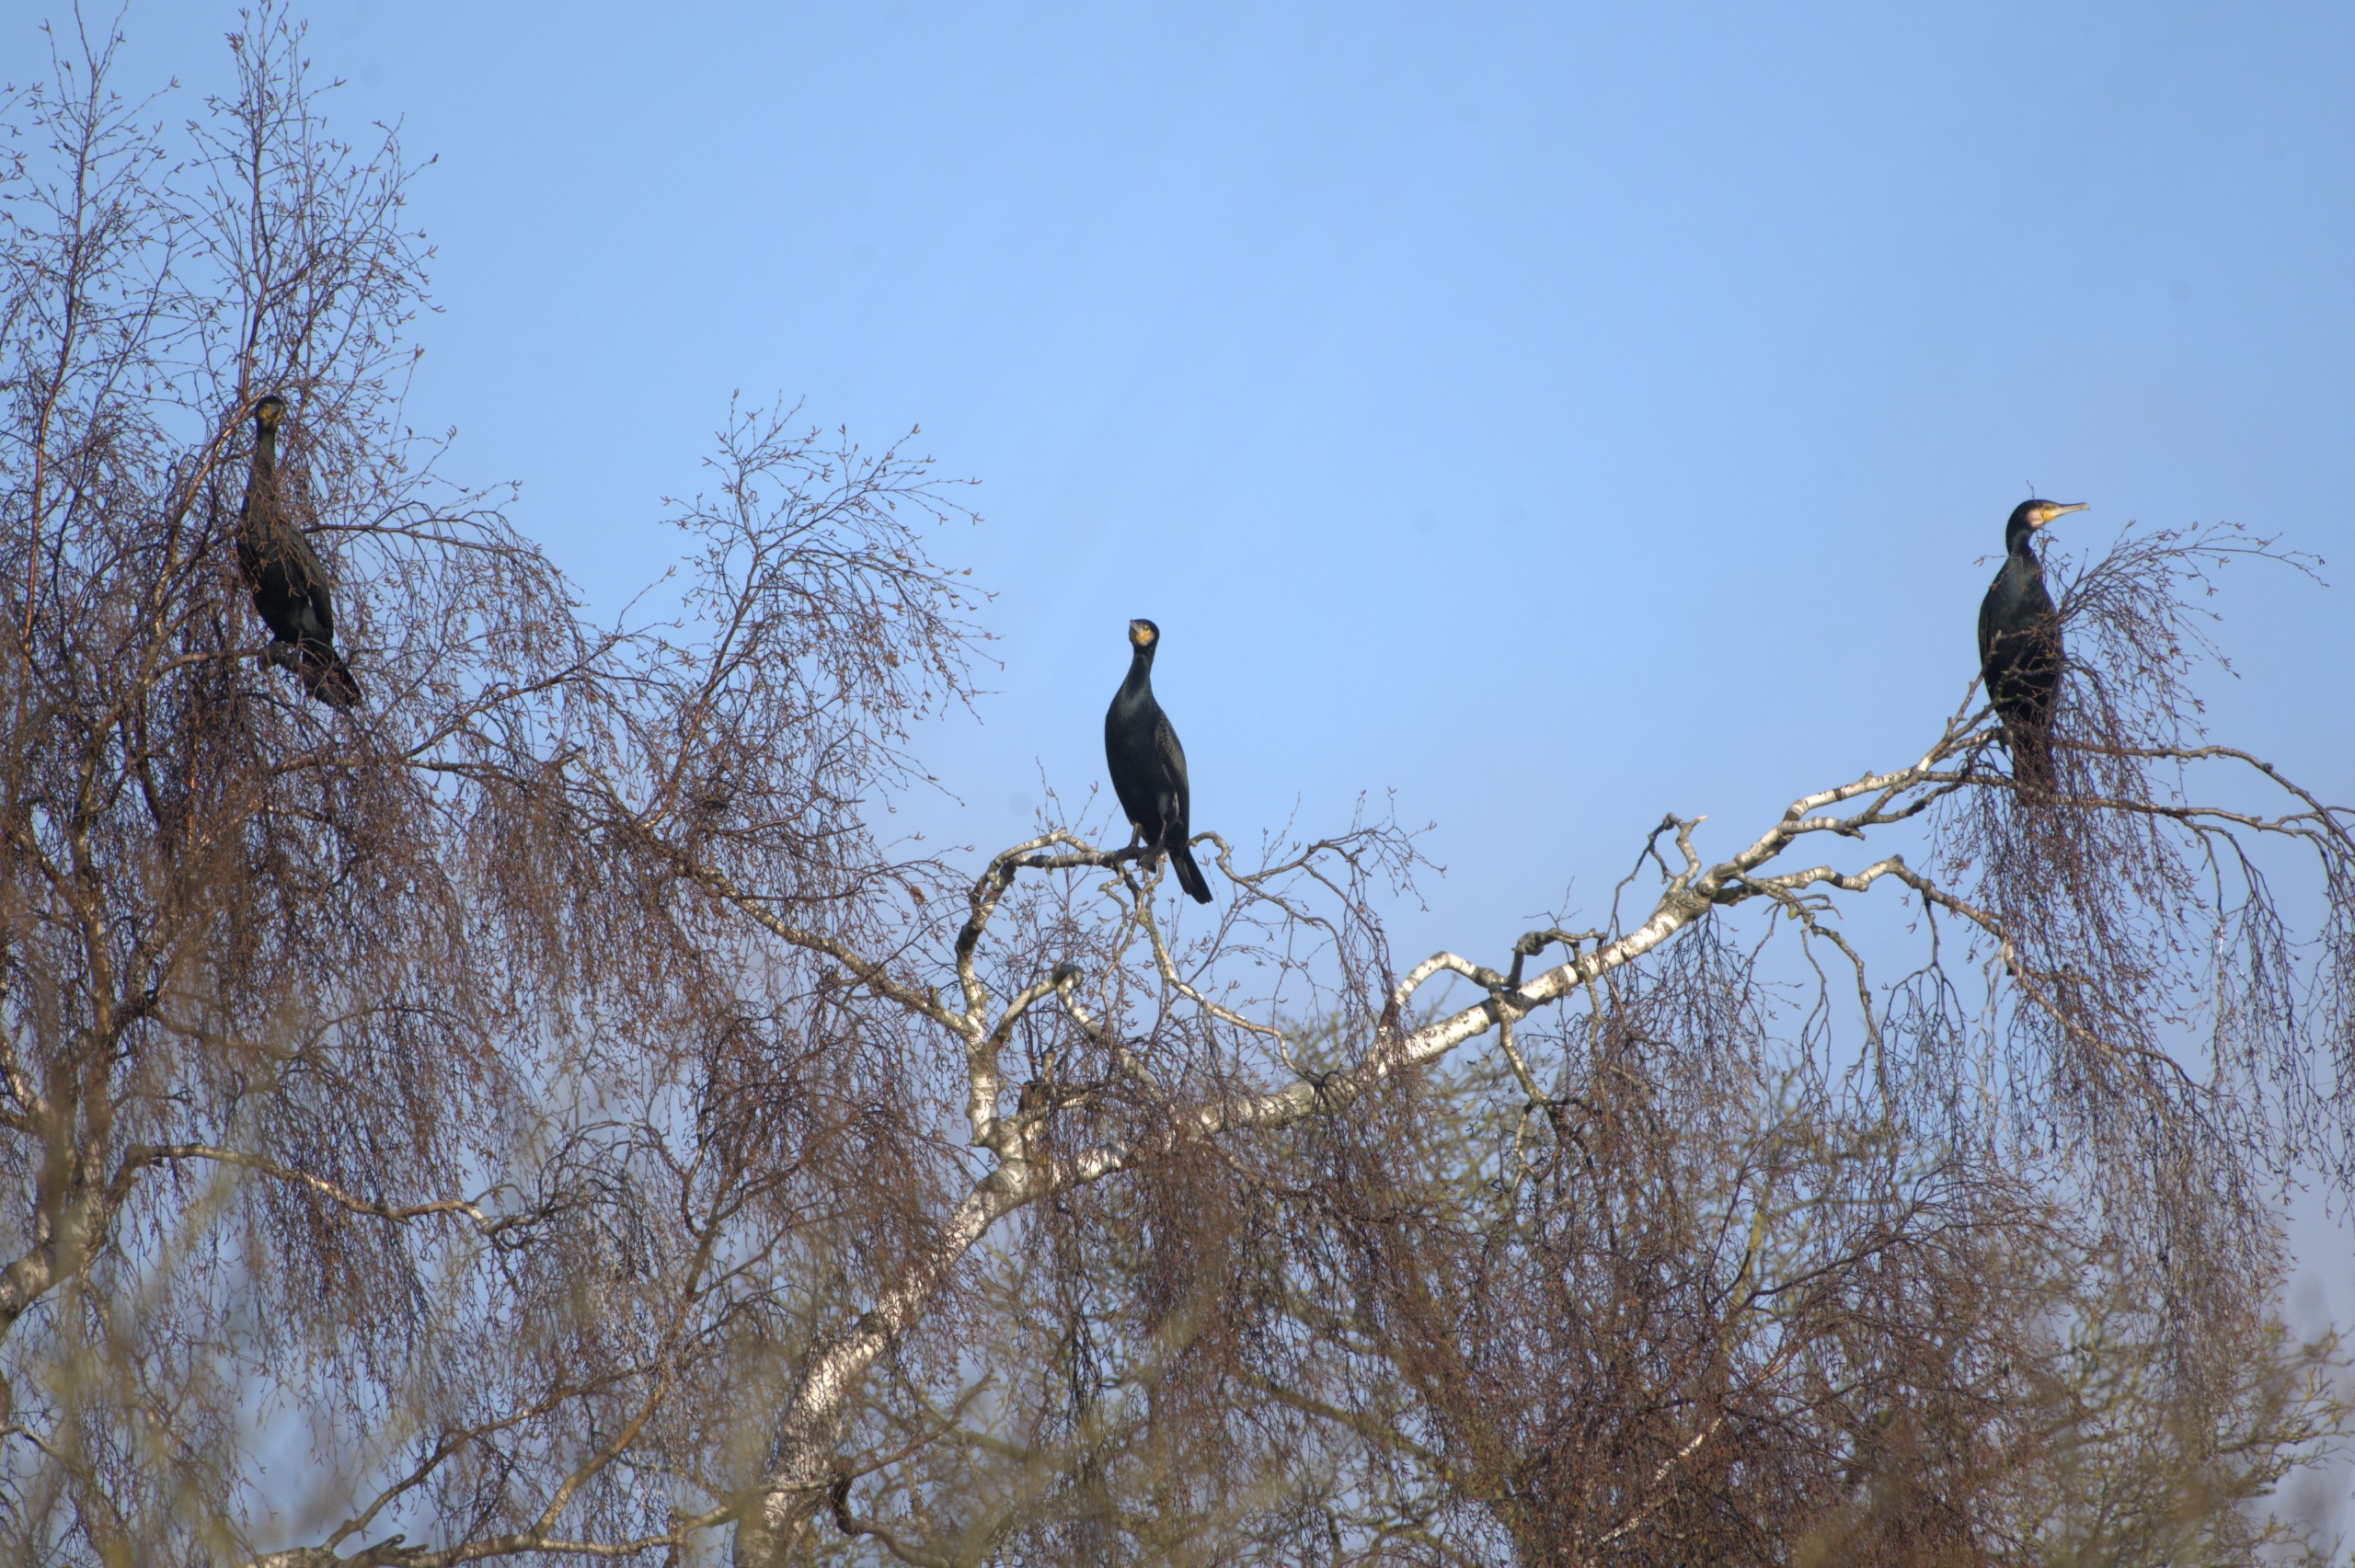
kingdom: Animalia
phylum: Chordata
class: Aves
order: Suliformes
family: Phalacrocoracidae
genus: Phalacrocorax
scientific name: Phalacrocorax carbo
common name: Skarv
